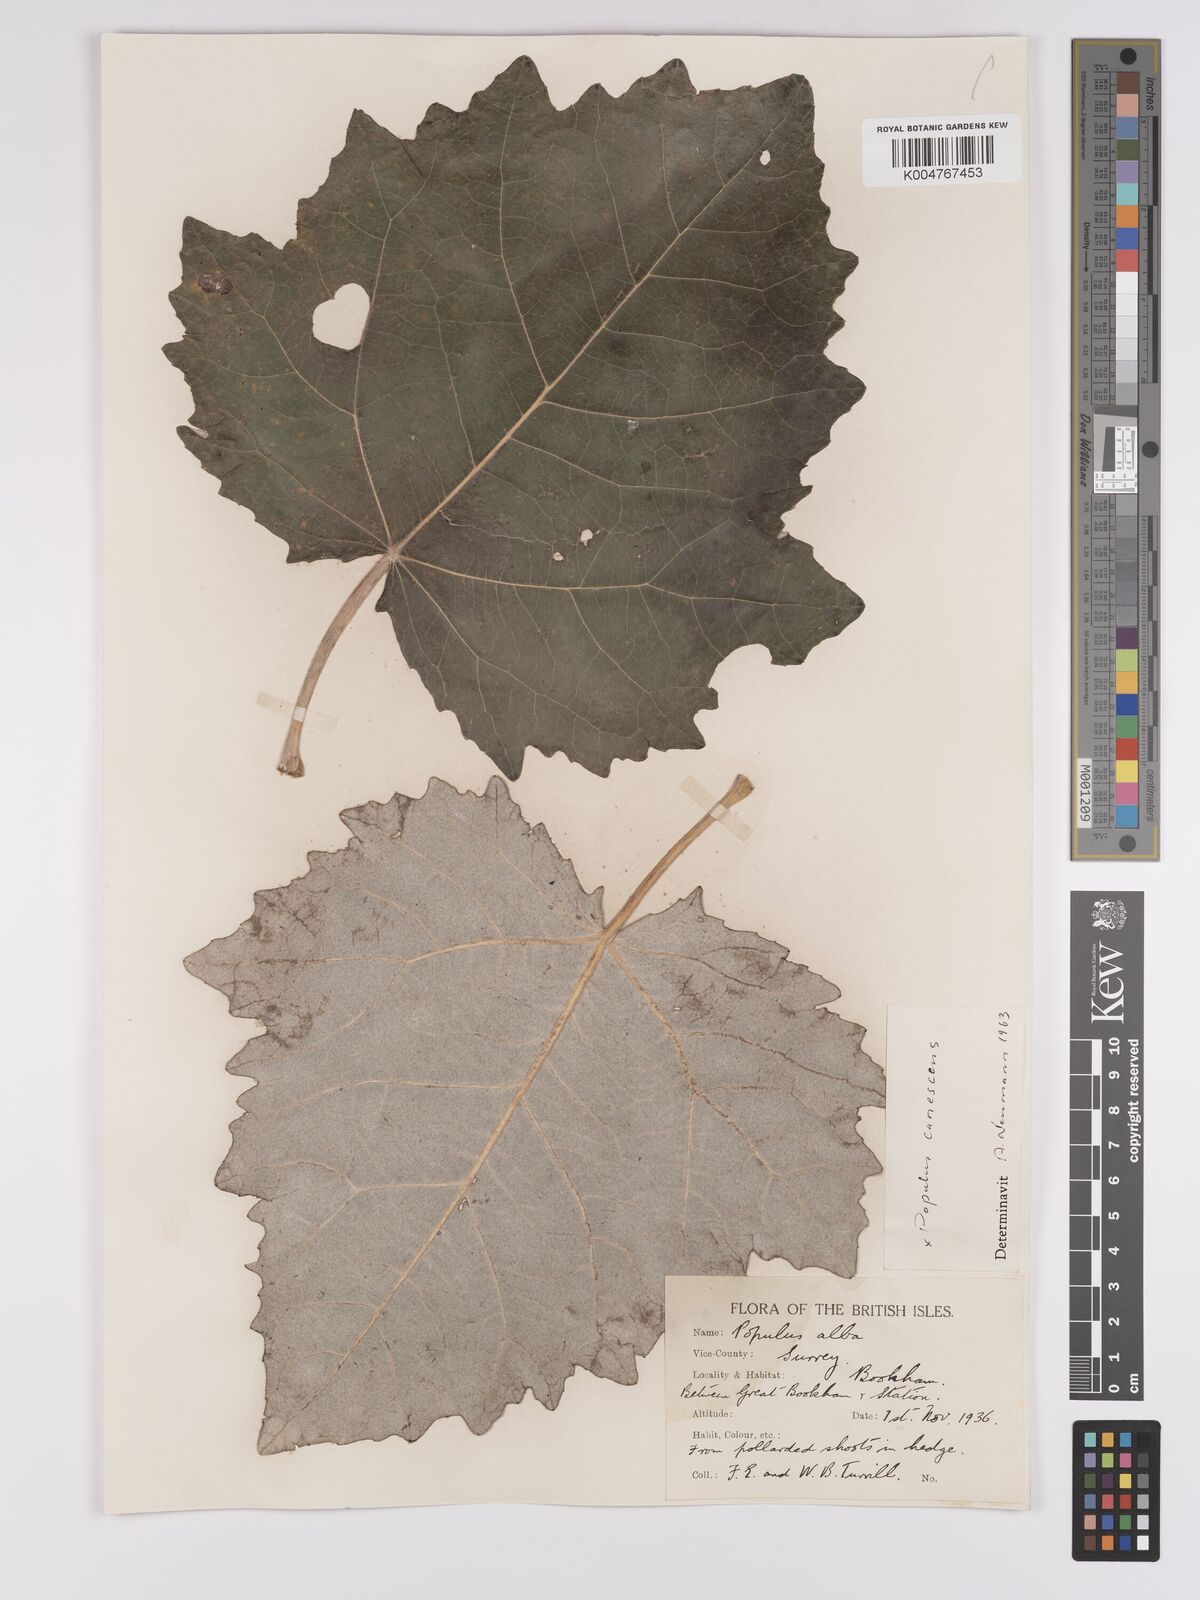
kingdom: Plantae
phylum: Tracheophyta
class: Magnoliopsida
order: Malpighiales
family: Salicaceae
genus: Populus
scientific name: Populus canescens
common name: Gray poplar
